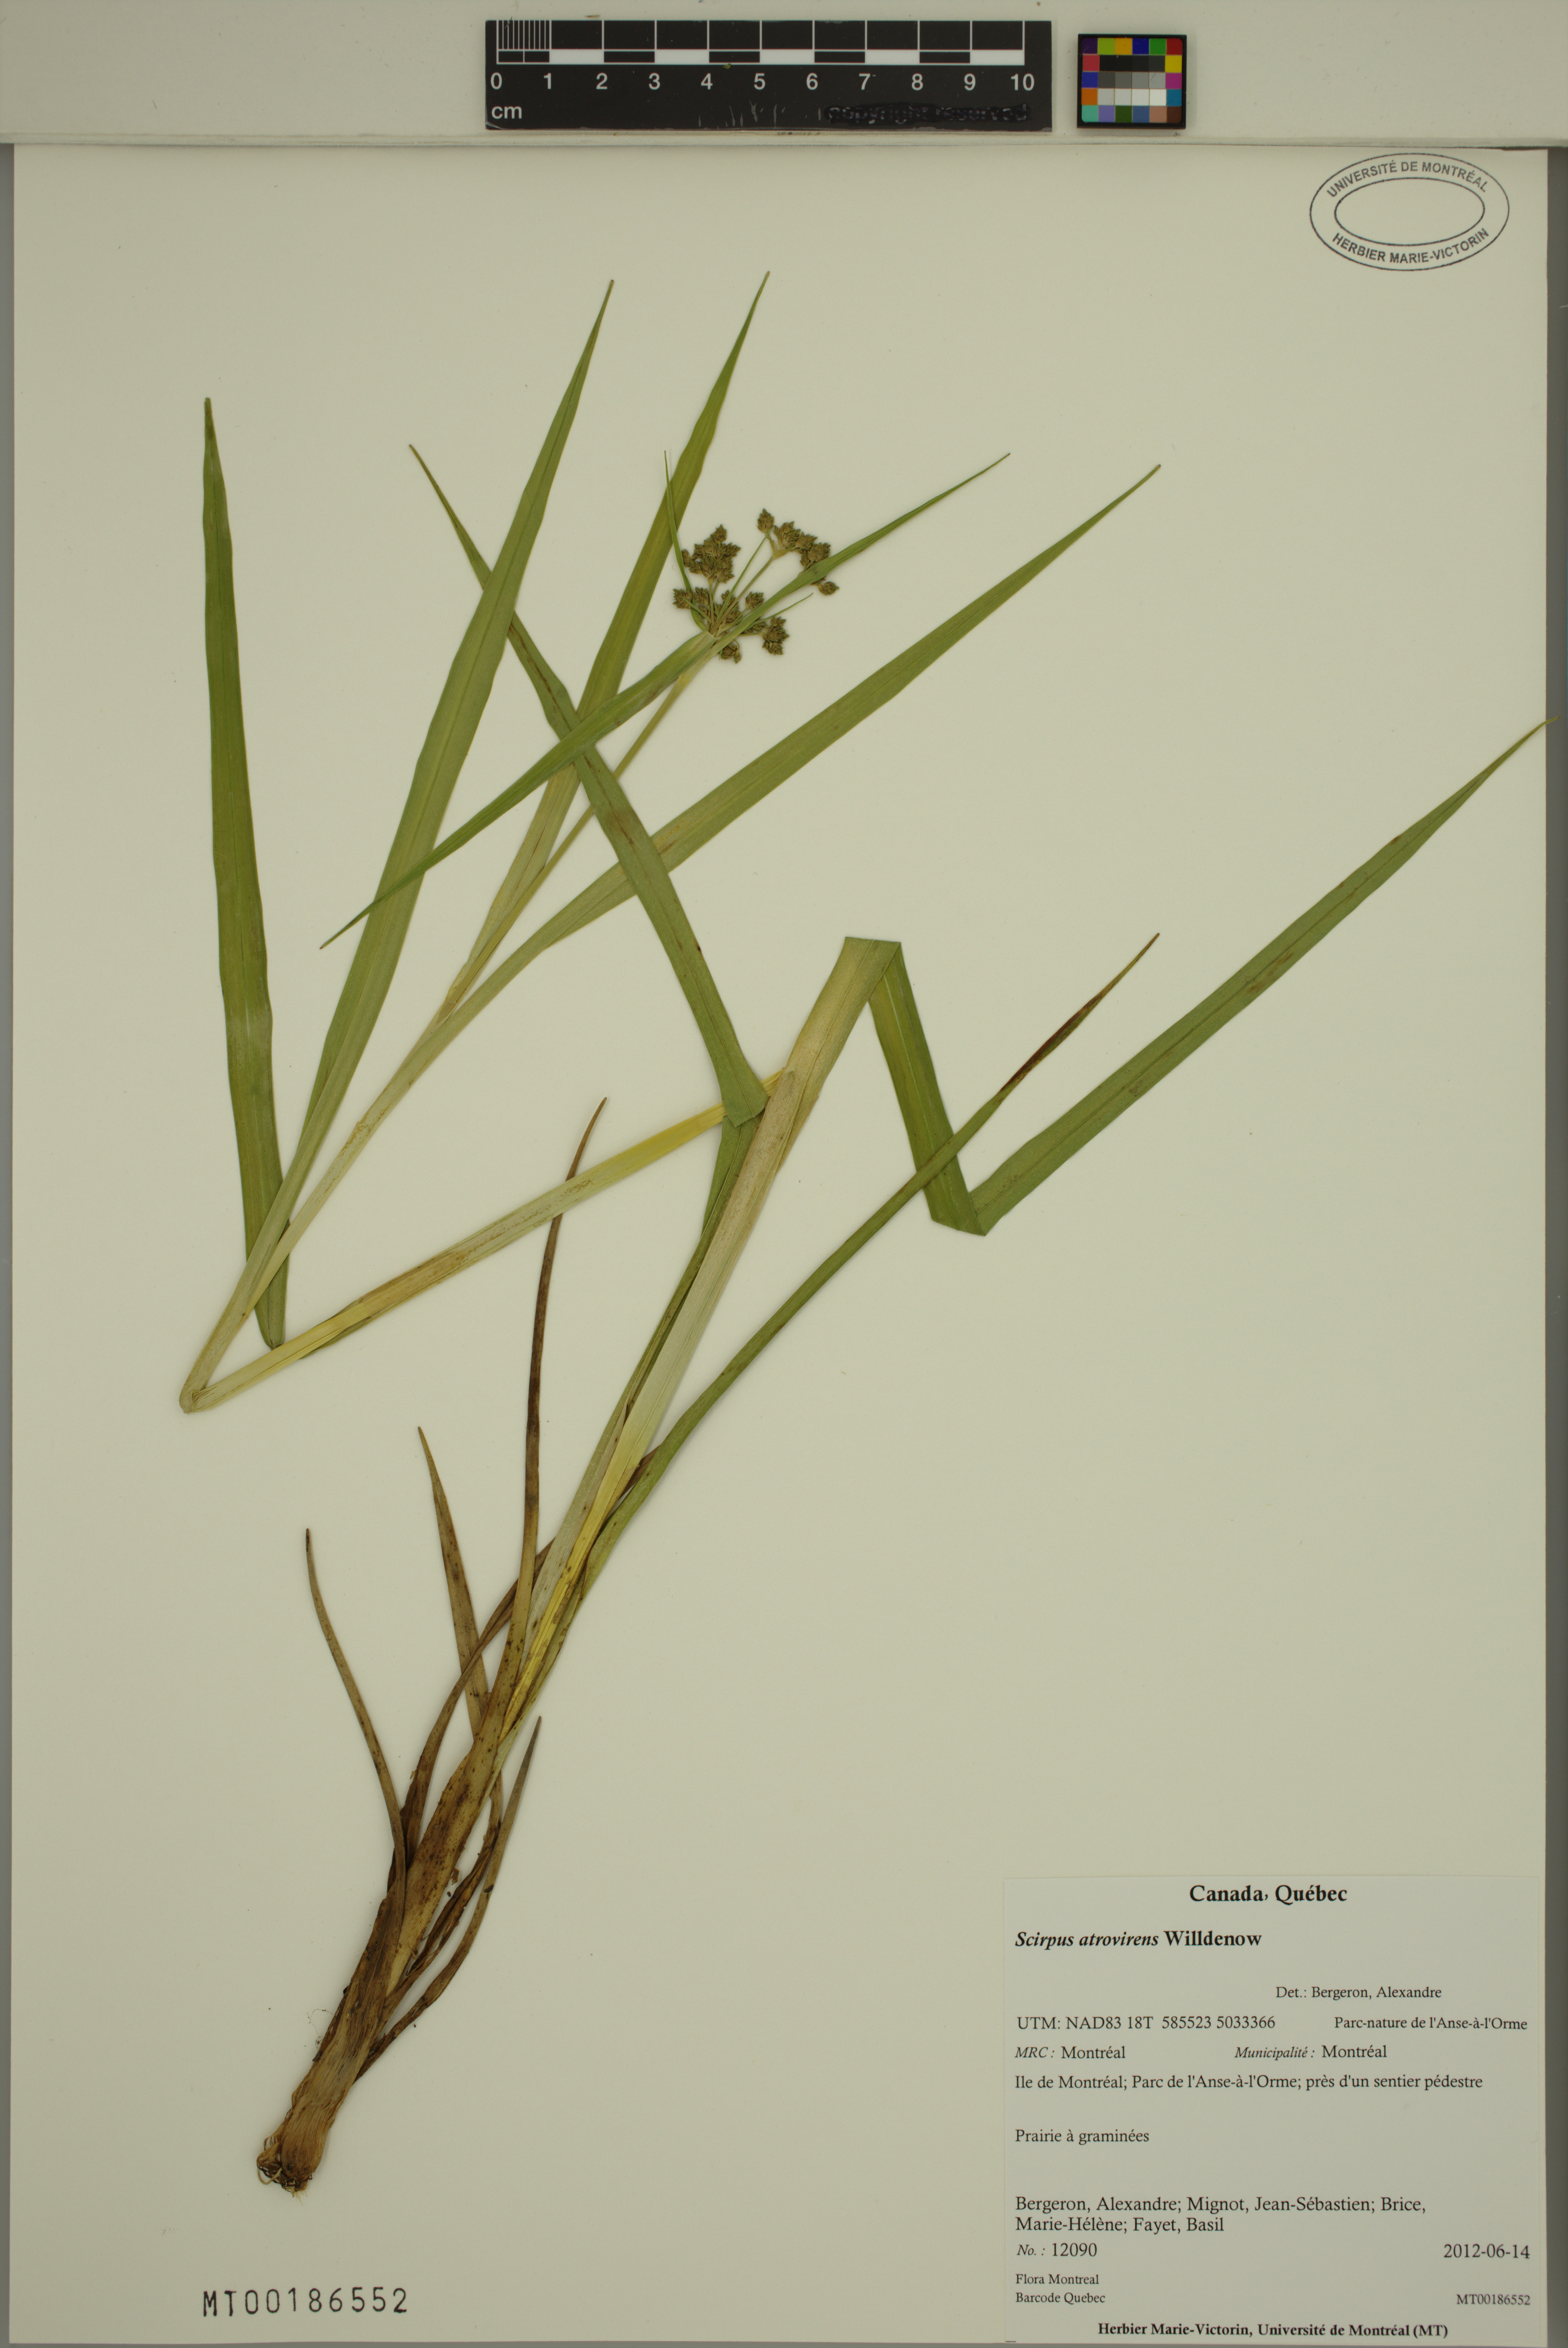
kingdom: Plantae
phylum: Tracheophyta
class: Liliopsida
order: Poales
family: Cyperaceae
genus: Scirpus
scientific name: Scirpus atrovirens
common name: Black bulrush
